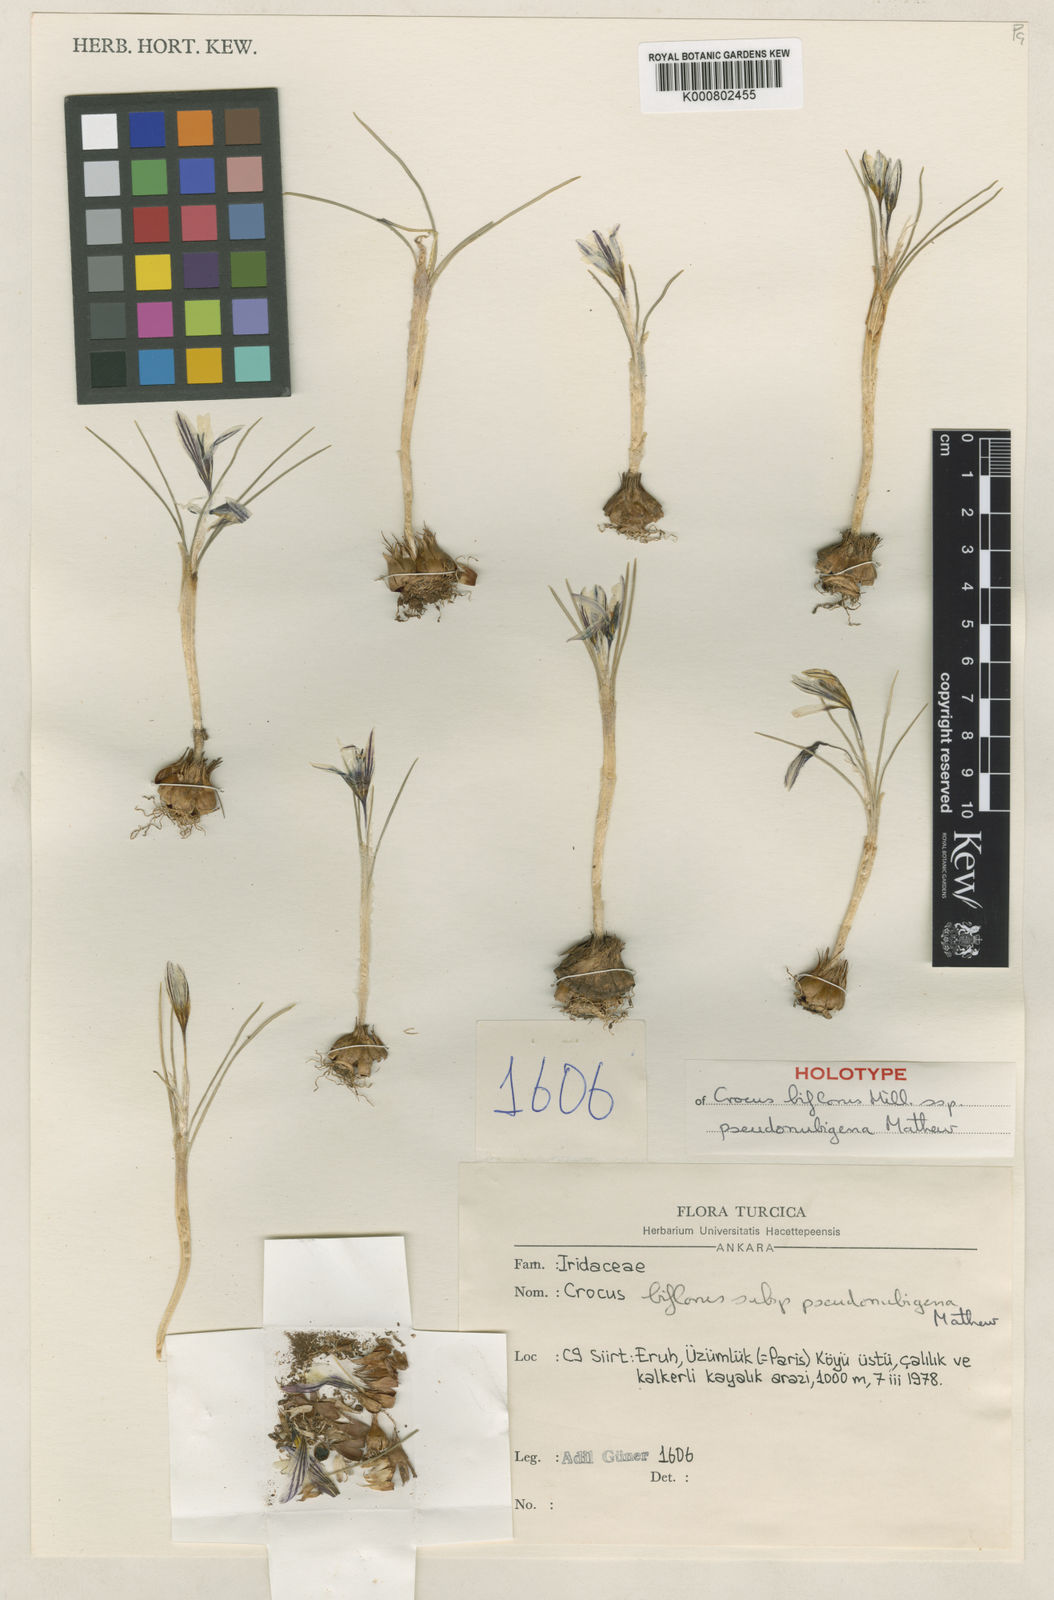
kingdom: Plantae
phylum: Tracheophyta
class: Liliopsida
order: Asparagales
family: Iridaceae
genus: Crocus
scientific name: Crocus pseudonubigena
